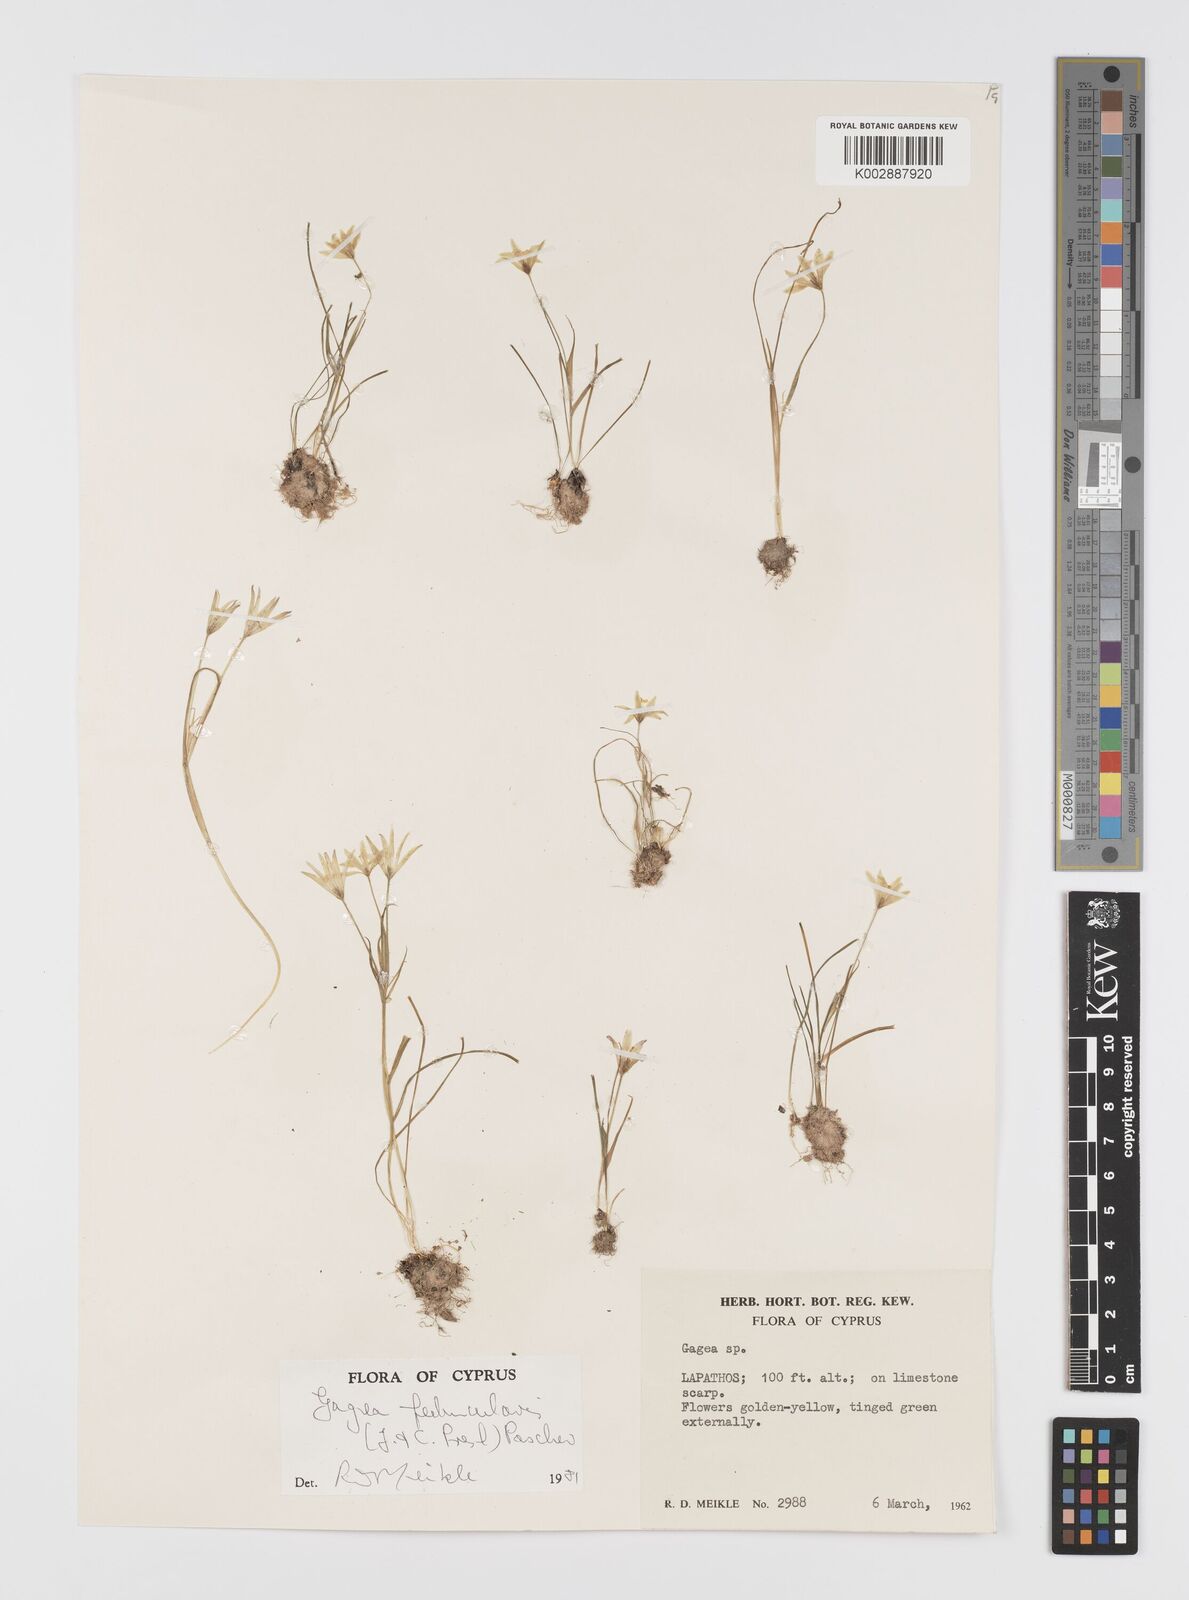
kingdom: Plantae
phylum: Tracheophyta
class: Liliopsida
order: Liliales
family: Liliaceae
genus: Gagea
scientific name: Gagea peduncularis
